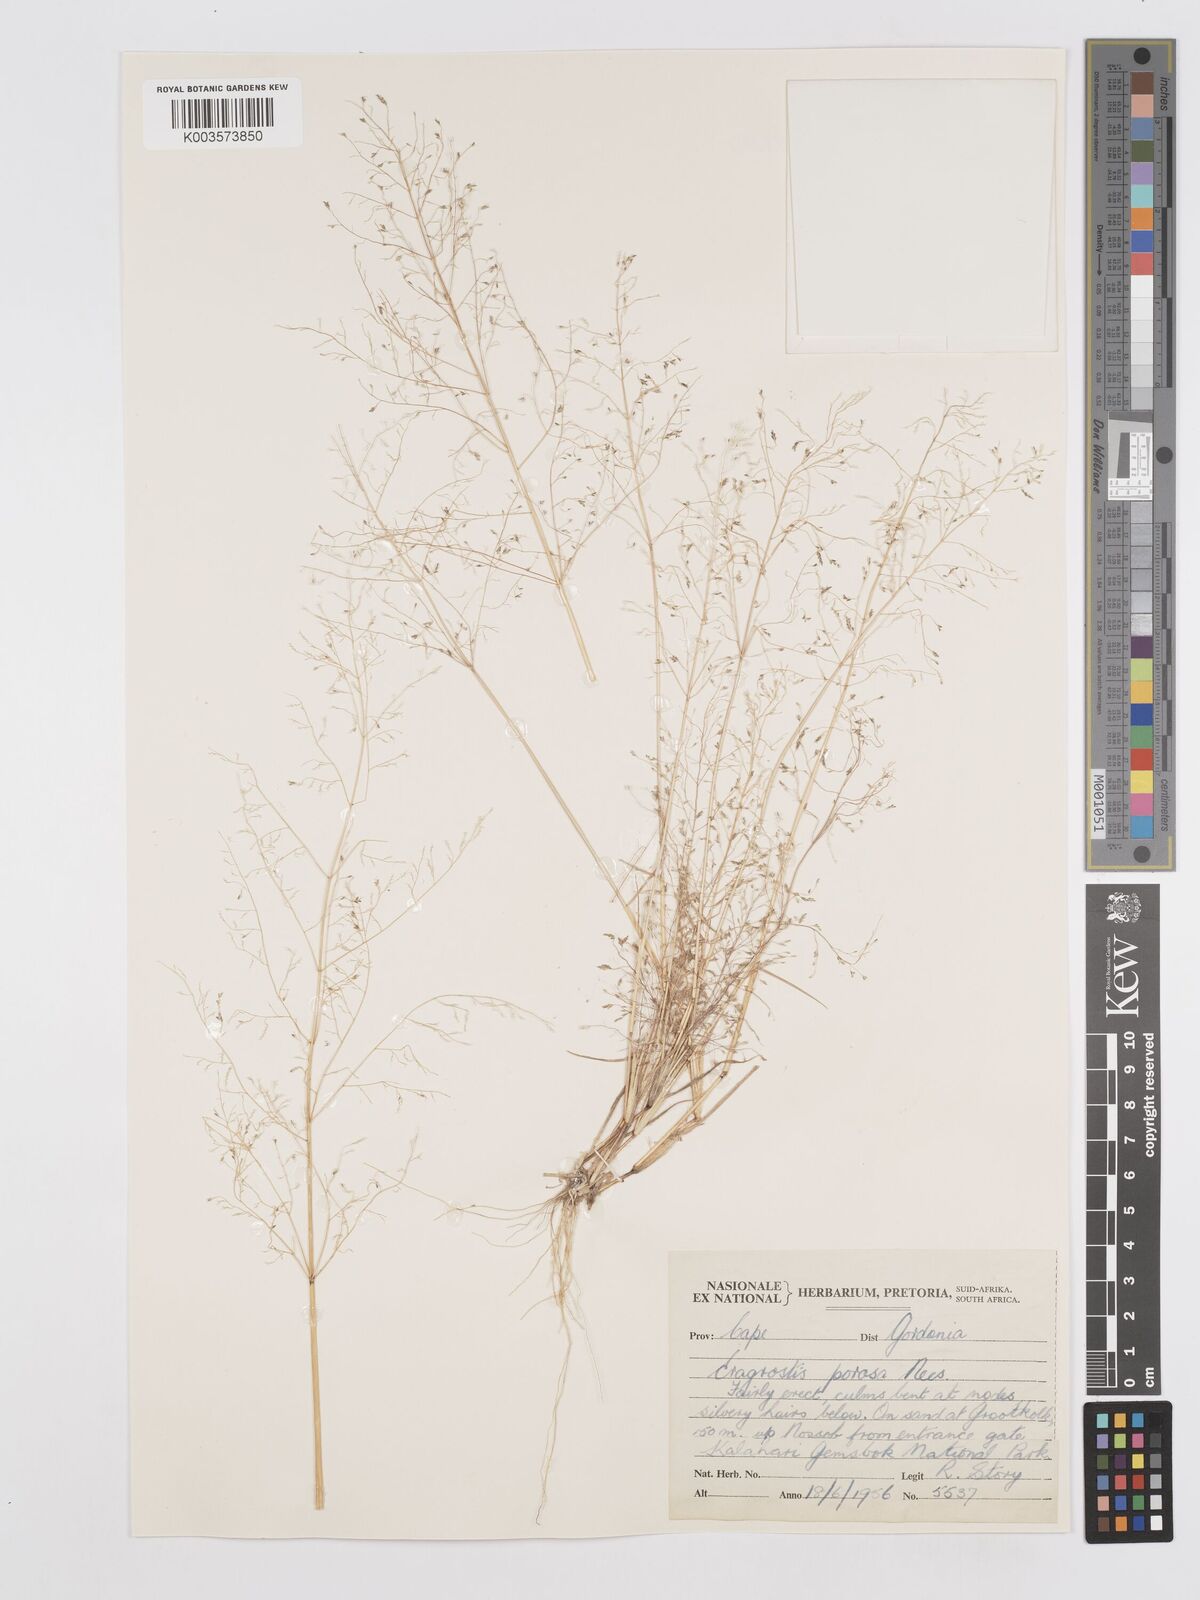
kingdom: Plantae
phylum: Tracheophyta
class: Liliopsida
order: Poales
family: Poaceae
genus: Eragrostis
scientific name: Eragrostis porosa
